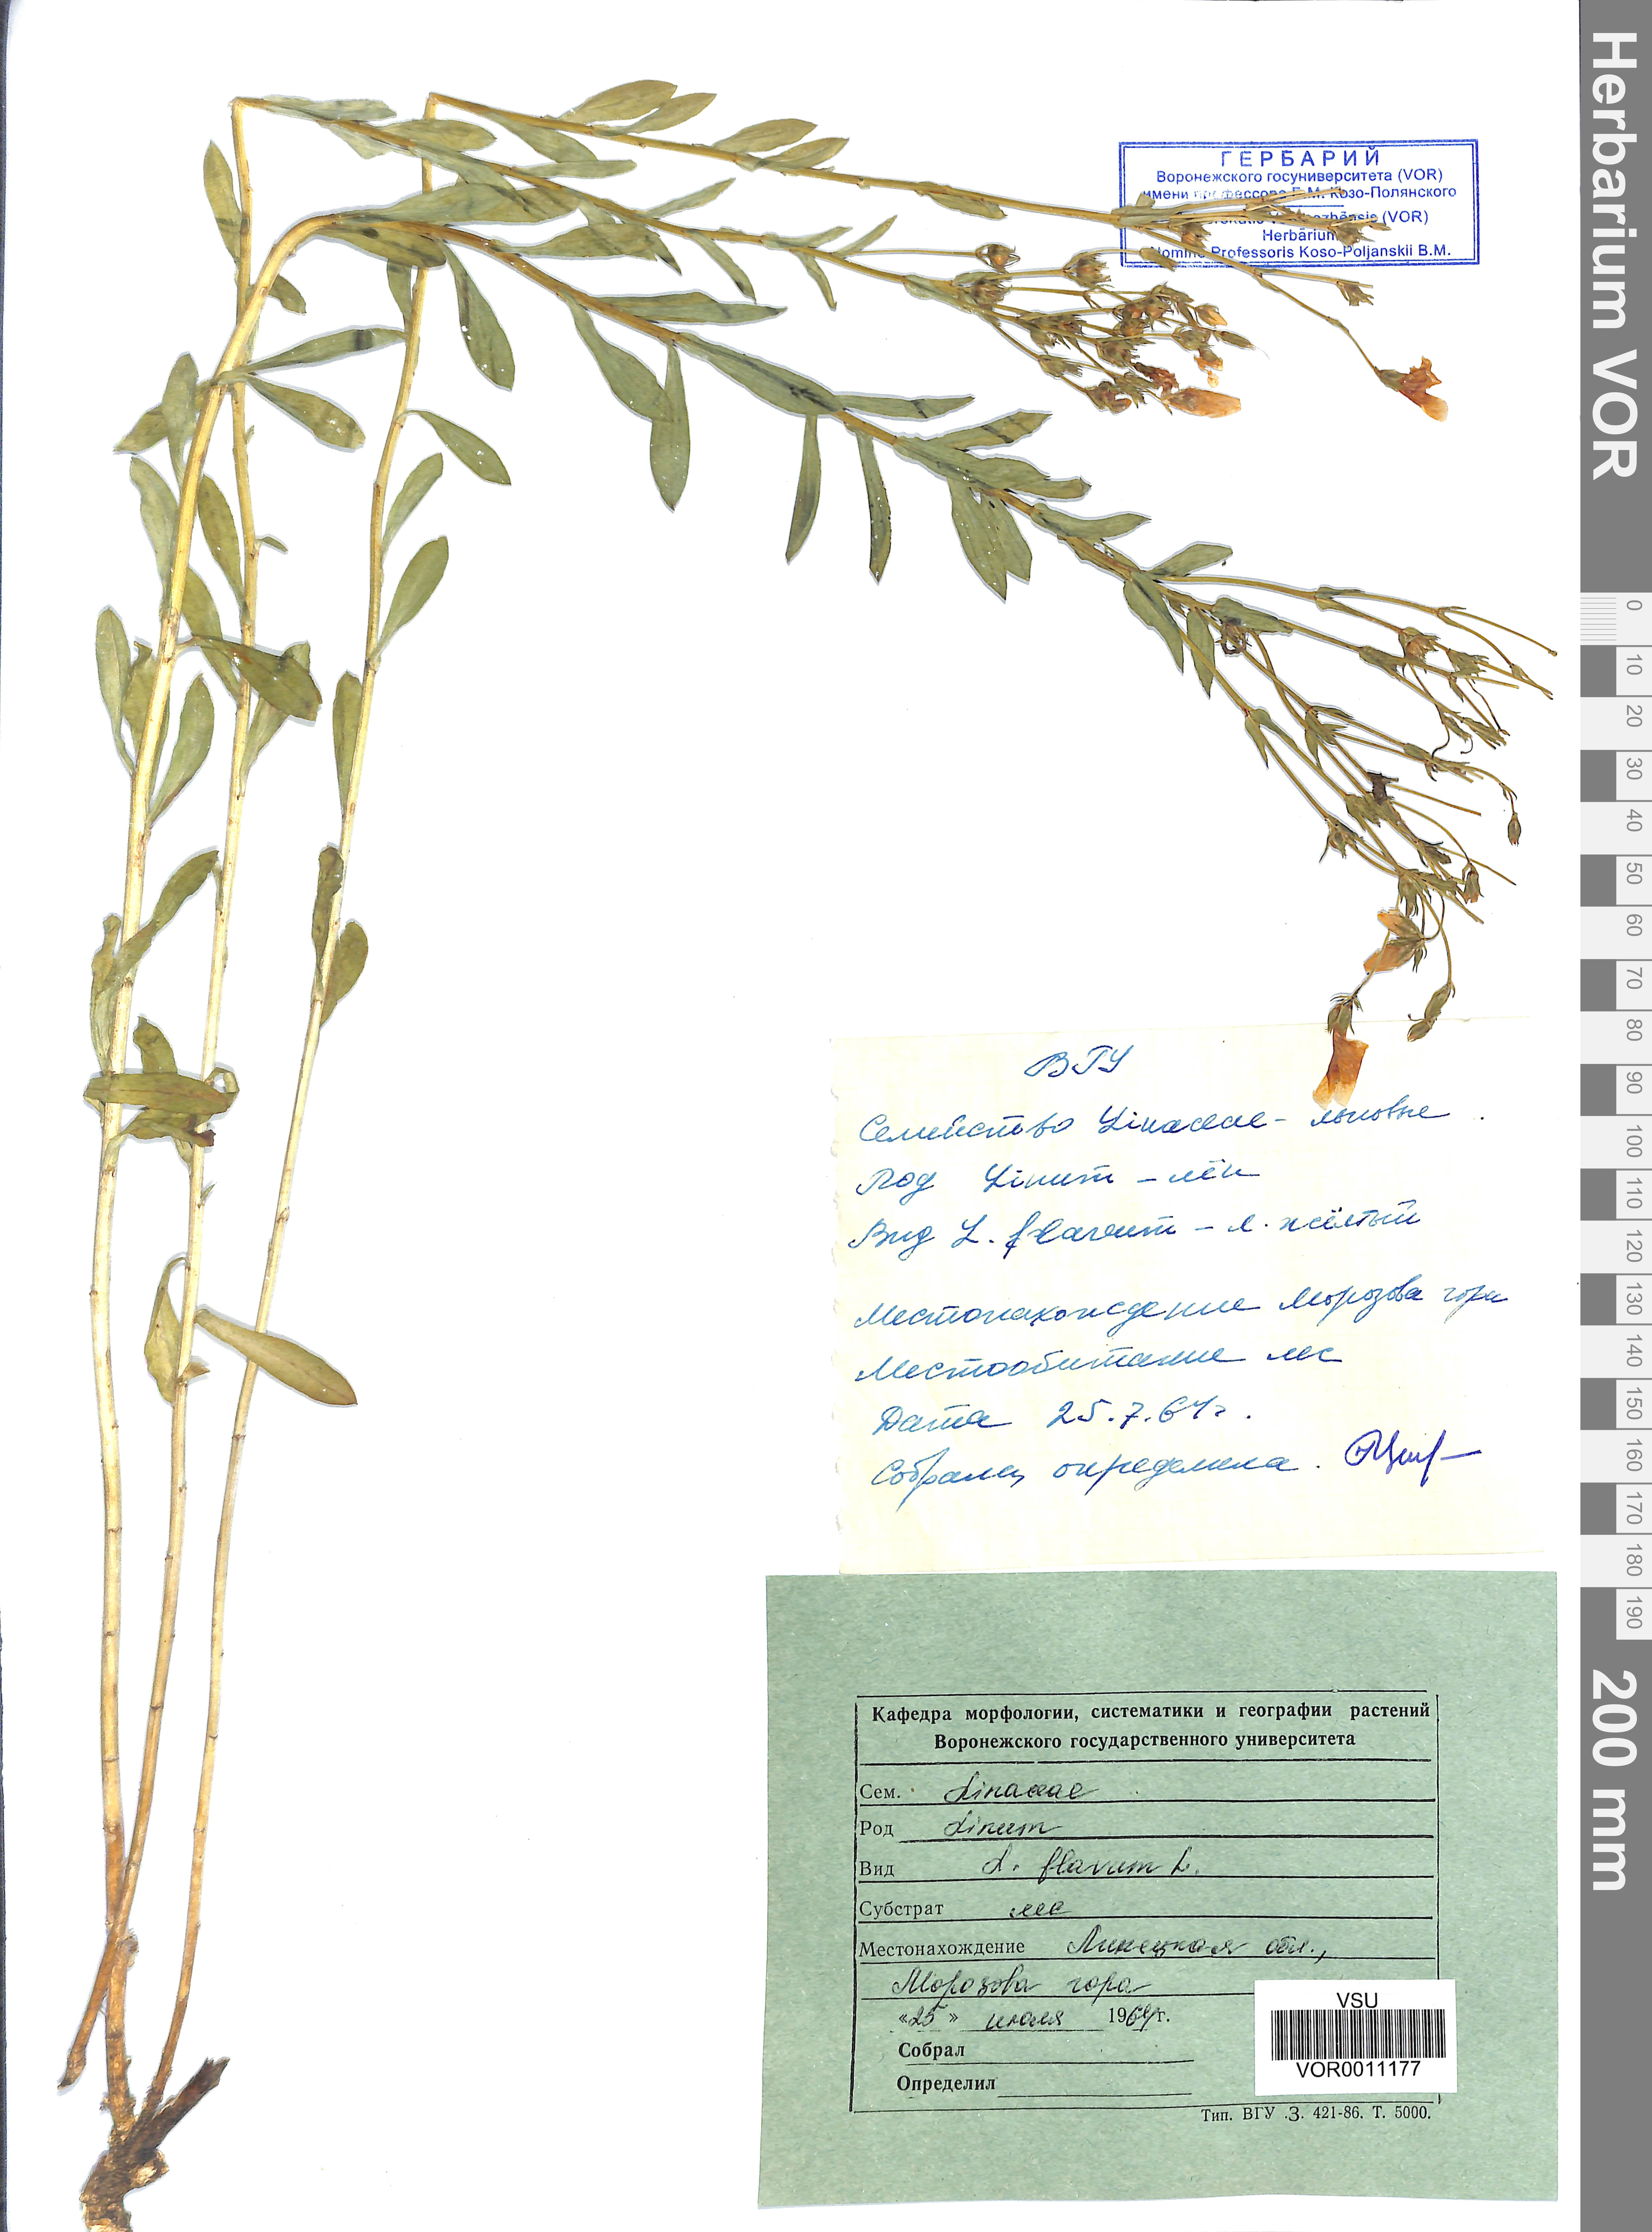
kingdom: Plantae
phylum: Tracheophyta
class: Magnoliopsida
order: Malpighiales
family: Linaceae
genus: Linum
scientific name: Linum flavum
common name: Yellow flax
